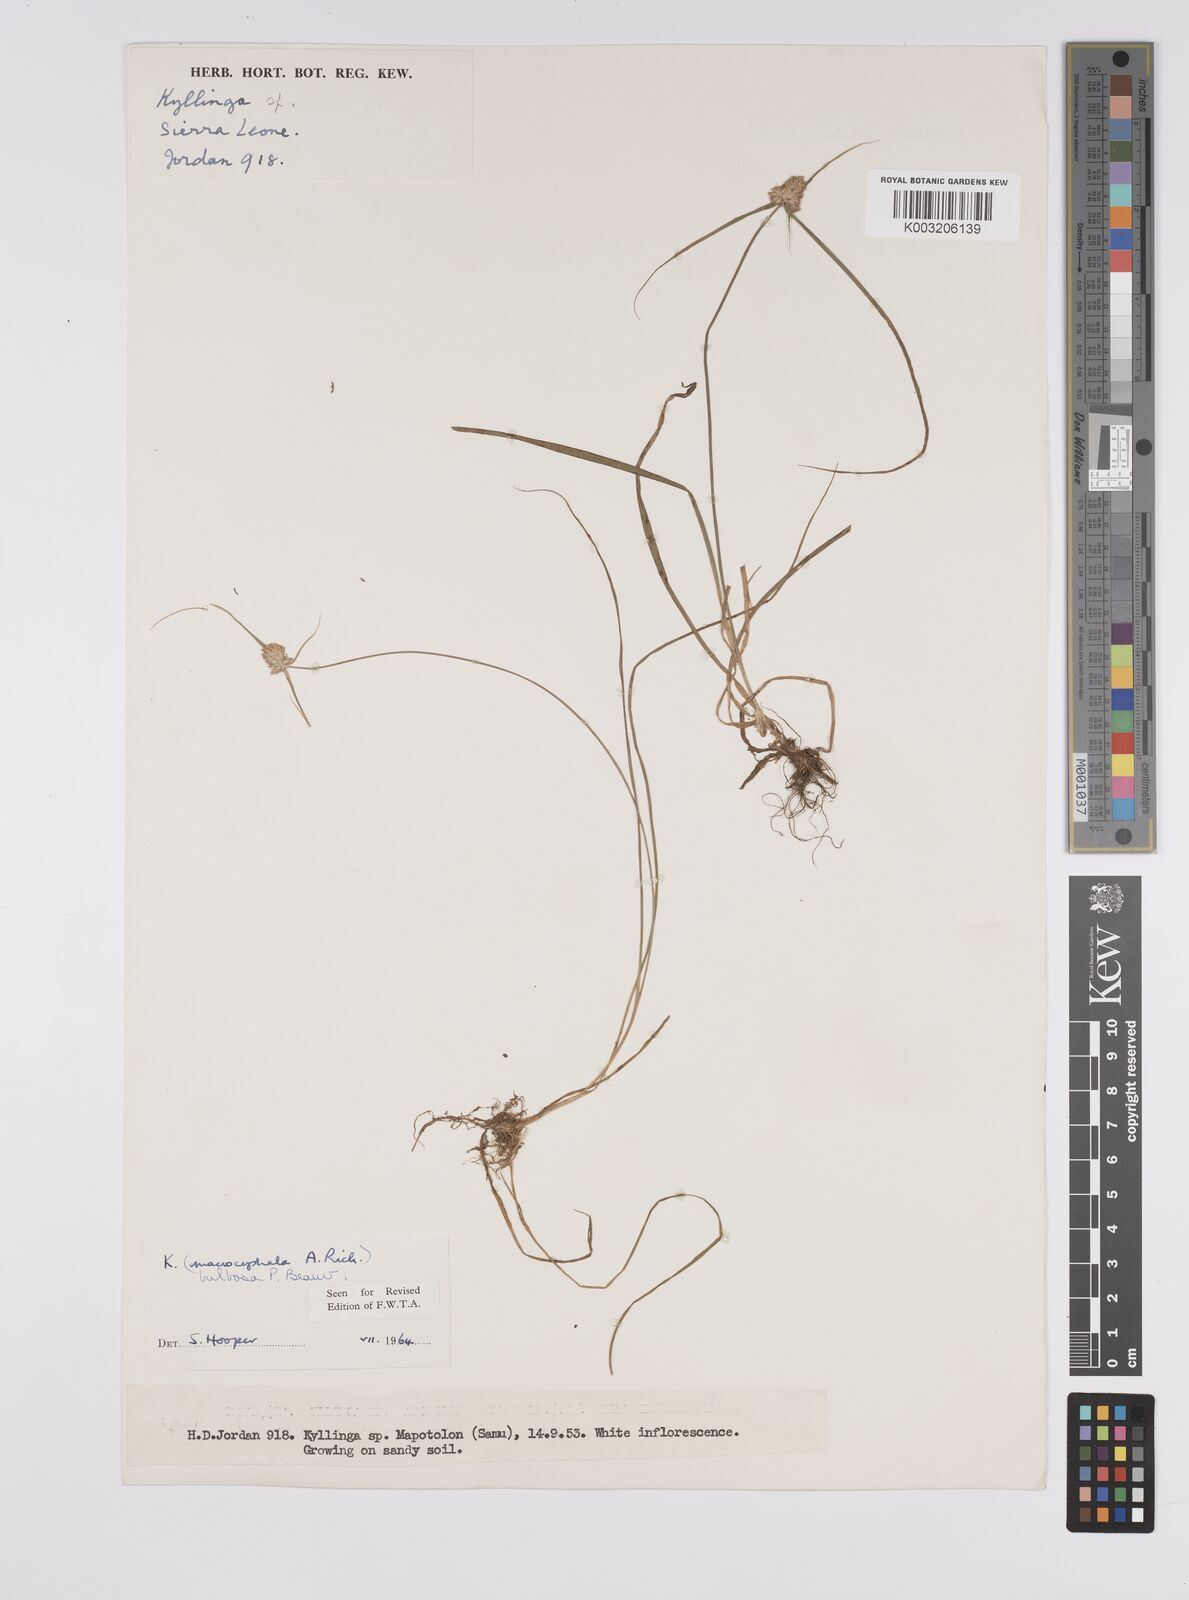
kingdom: Plantae
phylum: Tracheophyta
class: Liliopsida
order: Poales
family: Cyperaceae
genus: Cyperus
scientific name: Cyperus
